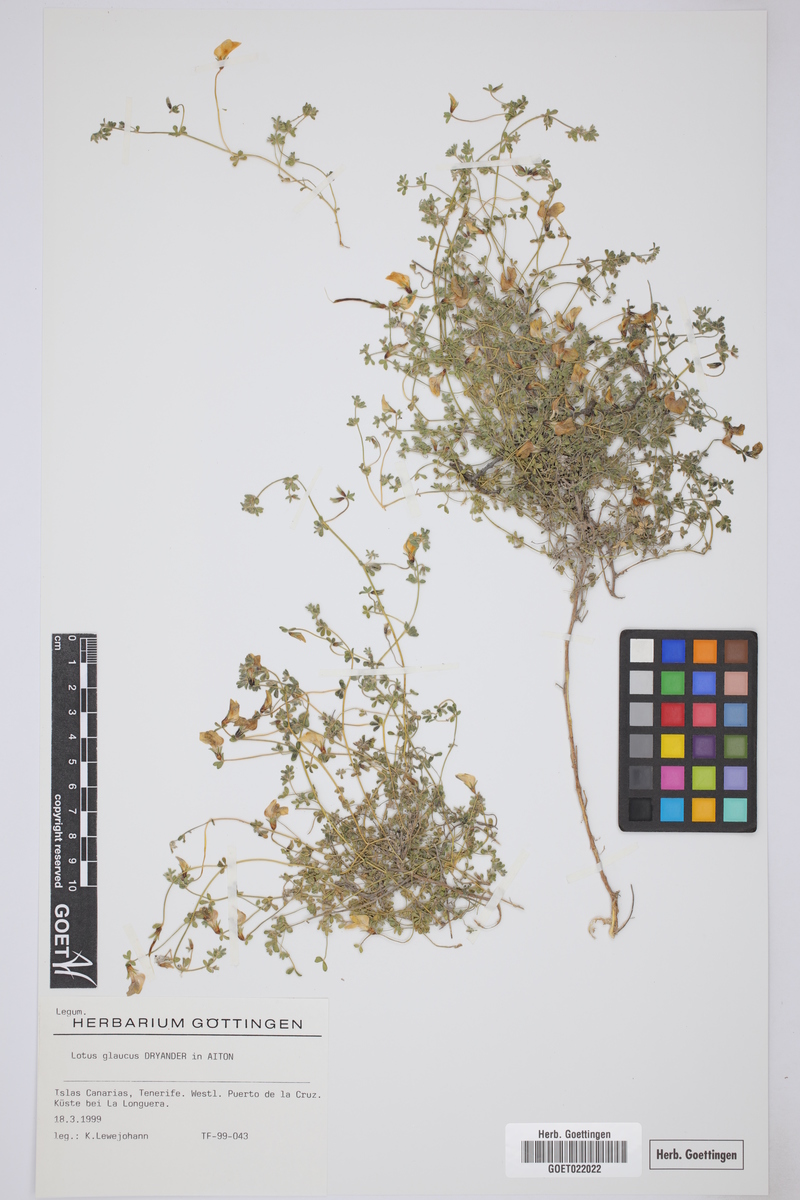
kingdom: Plantae
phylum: Tracheophyta
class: Magnoliopsida
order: Fabales
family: Fabaceae
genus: Lotus
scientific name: Lotus glaucus
